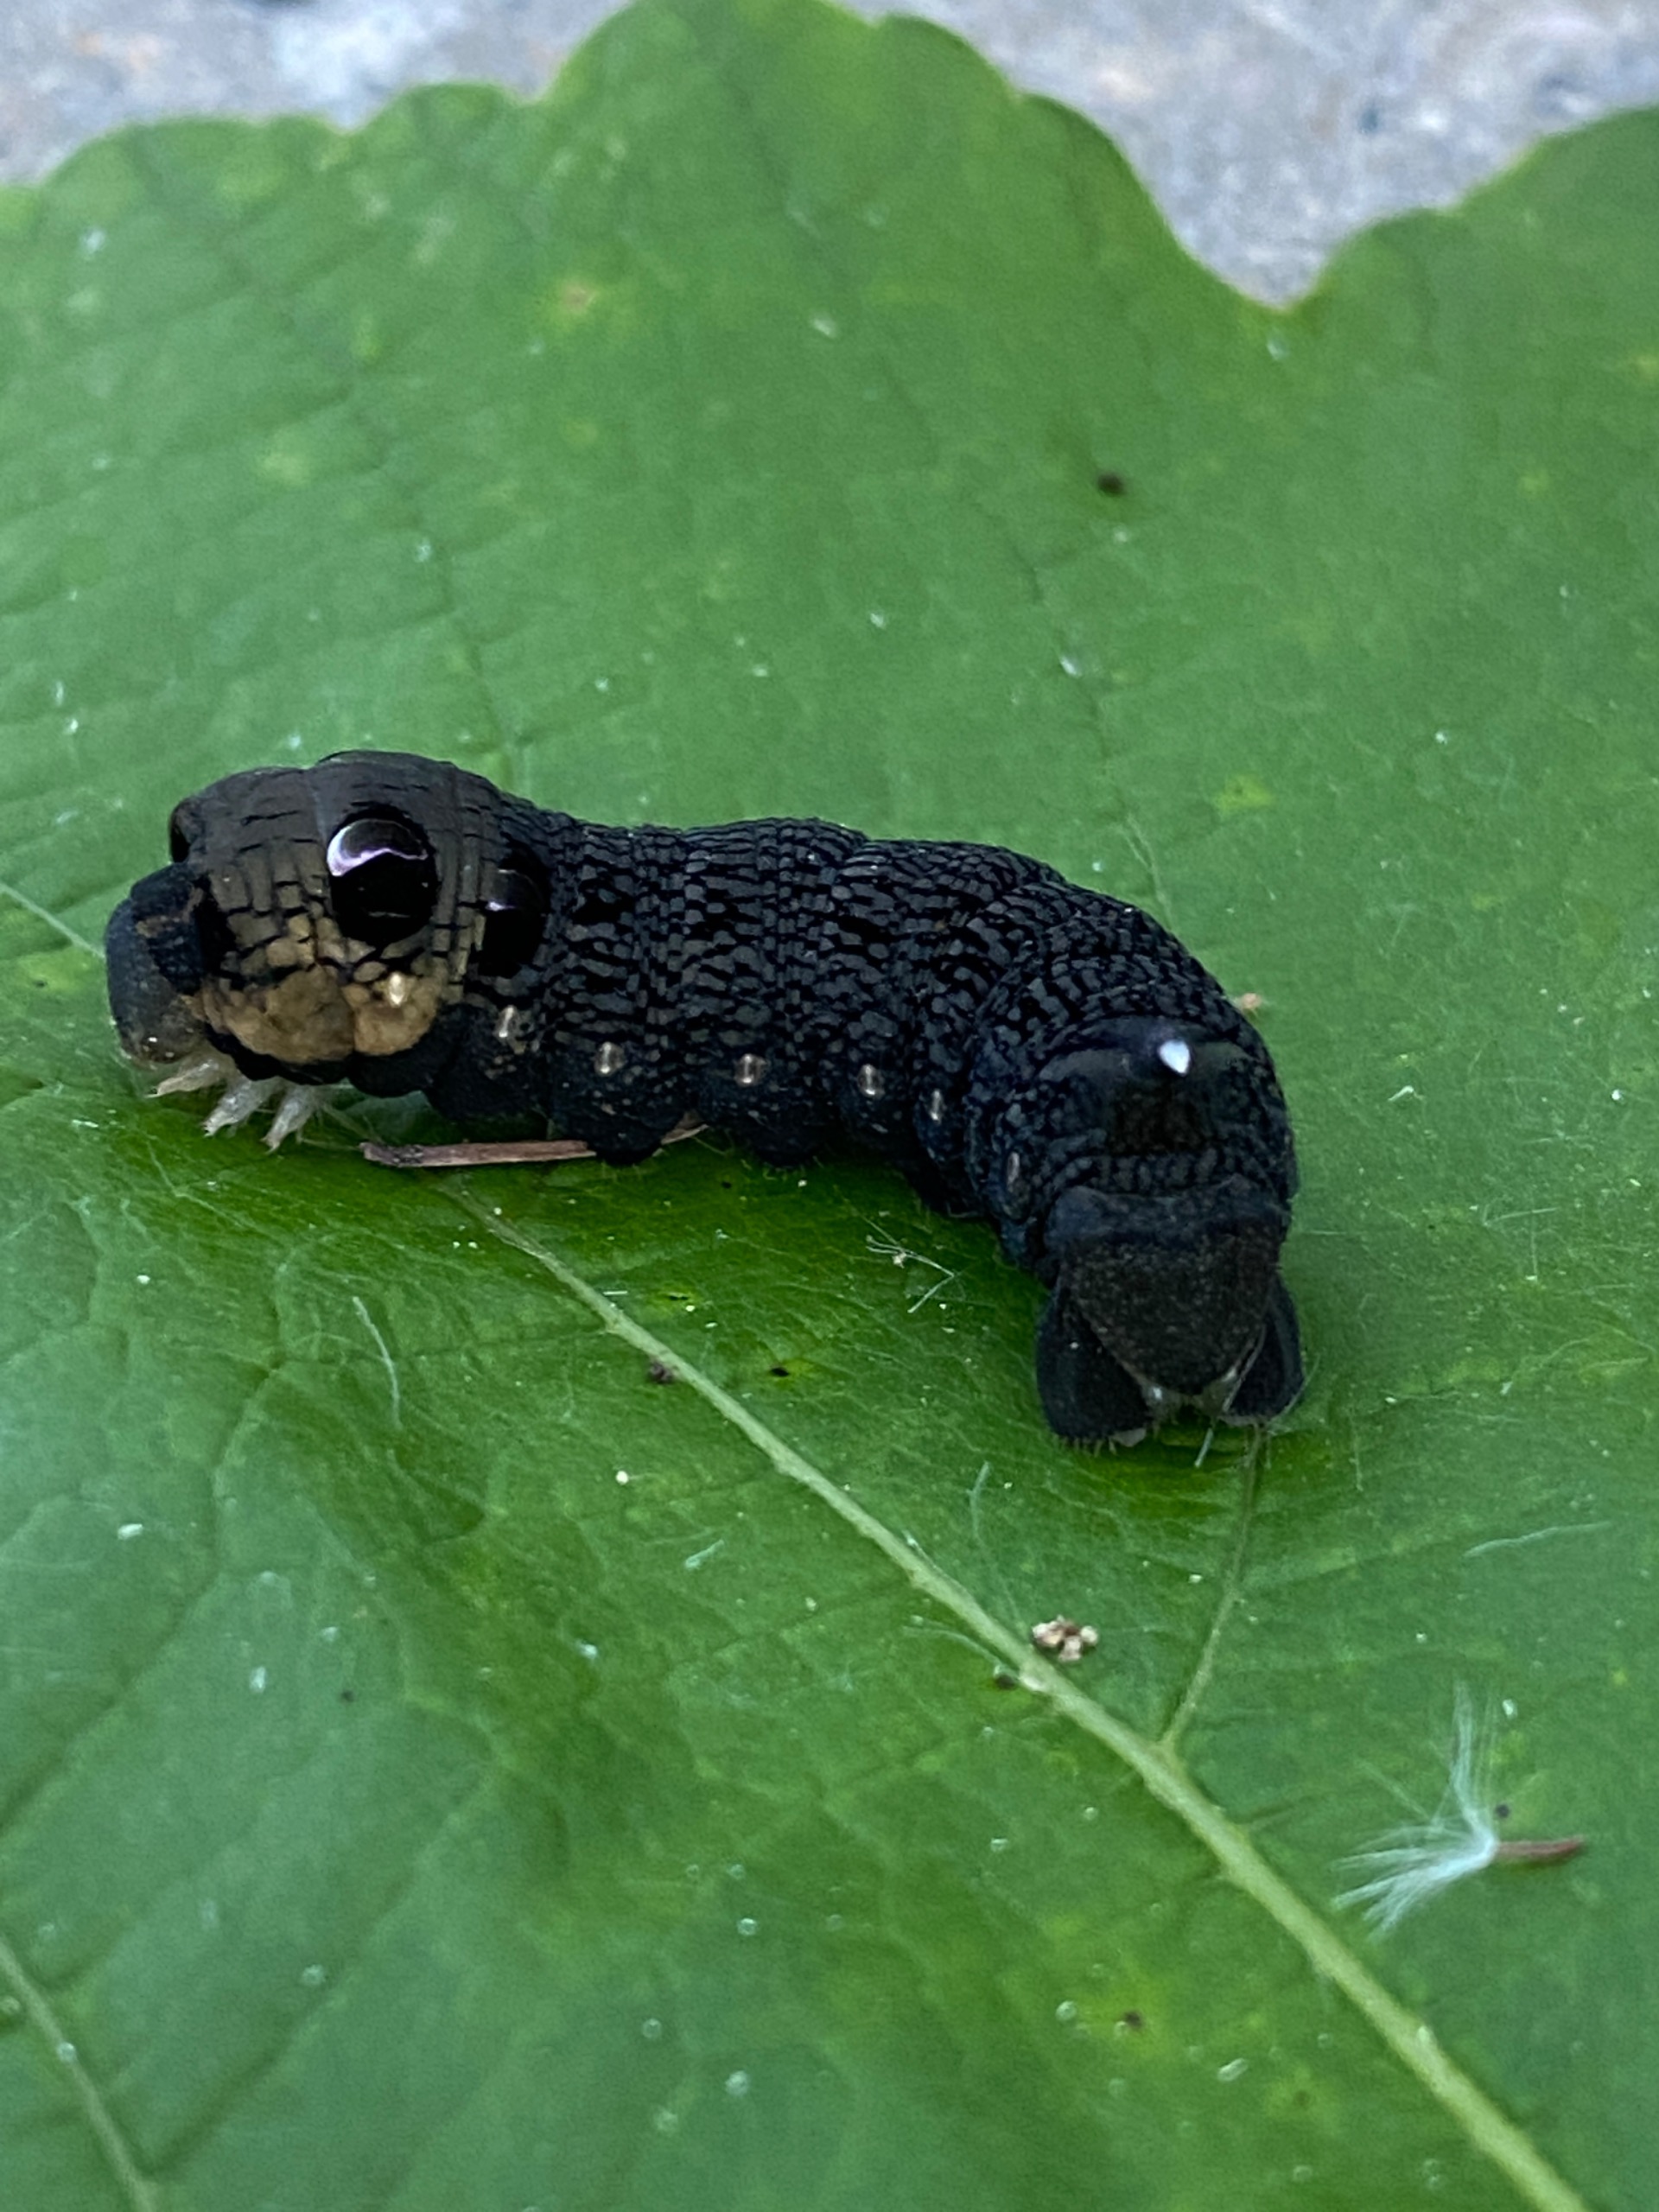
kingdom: Animalia
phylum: Arthropoda
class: Insecta
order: Lepidoptera
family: Sphingidae
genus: Deilephila
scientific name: Deilephila elpenor
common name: Dueurtsværmer
